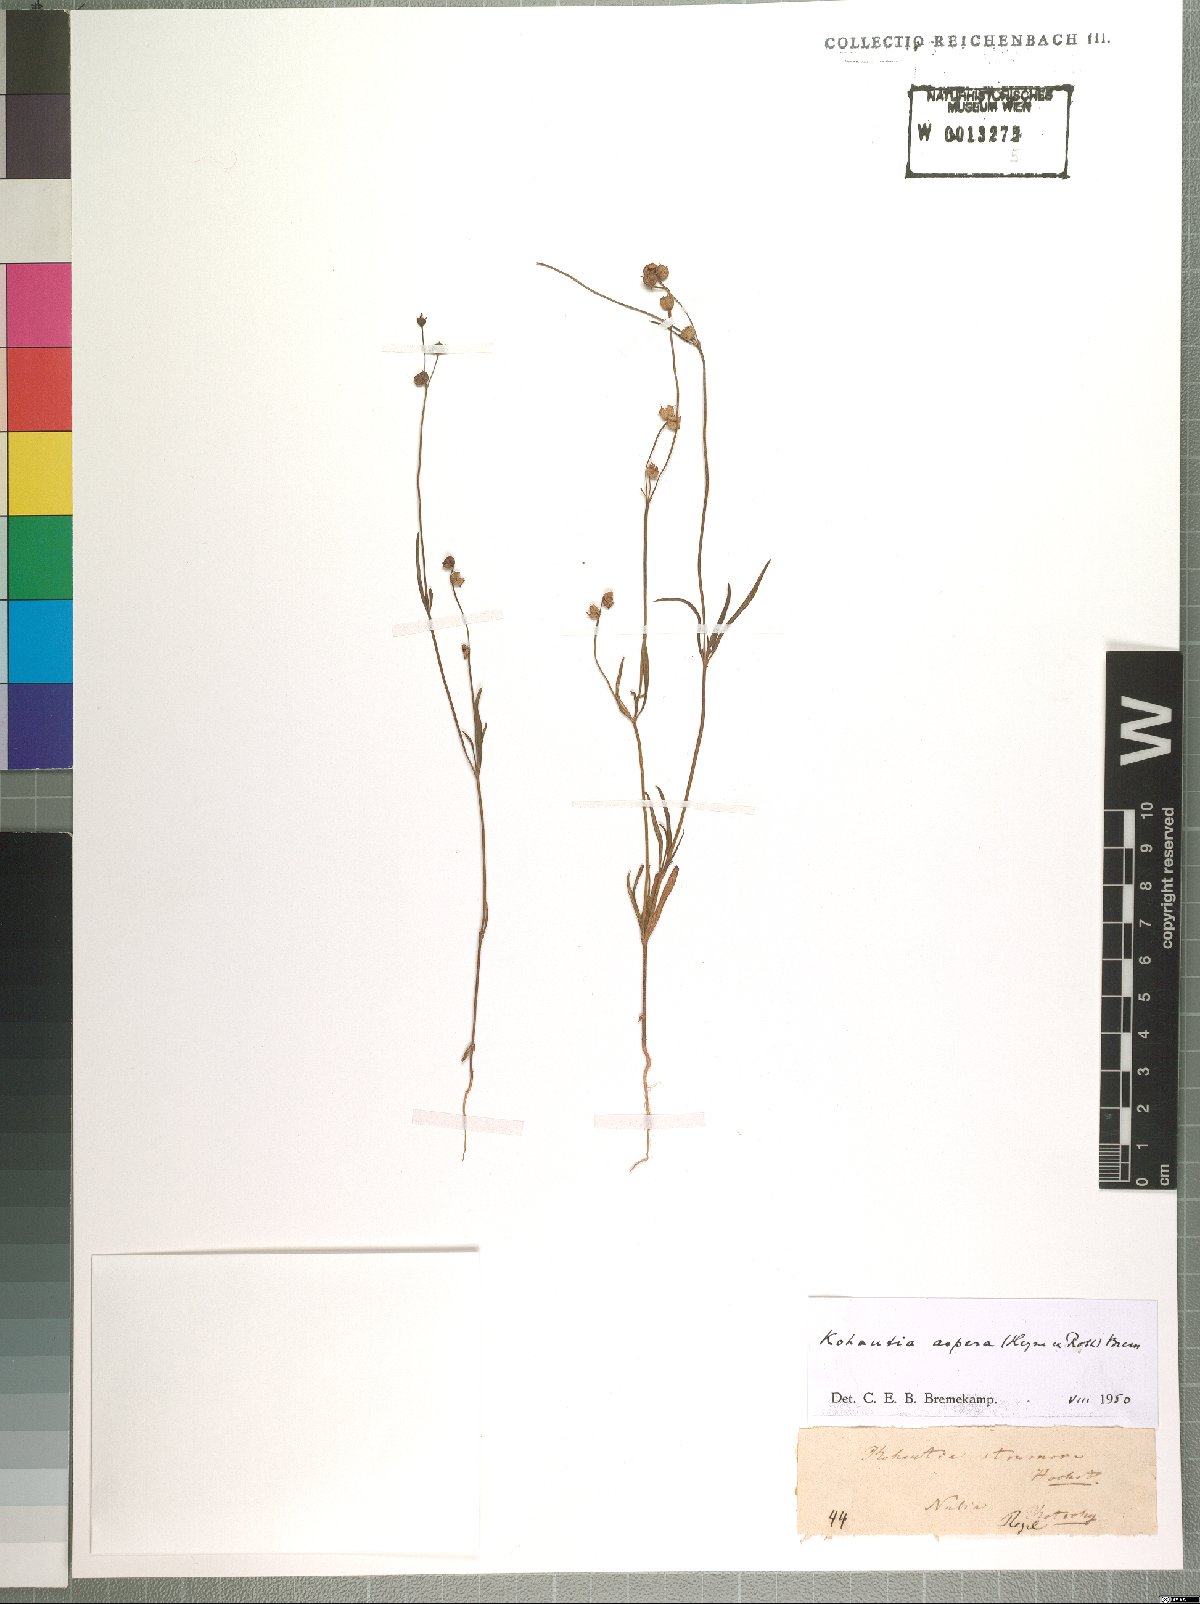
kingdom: Plantae
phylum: Tracheophyta
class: Magnoliopsida
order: Gentianales
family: Rubiaceae
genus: Kohautia
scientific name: Kohautia aspera
